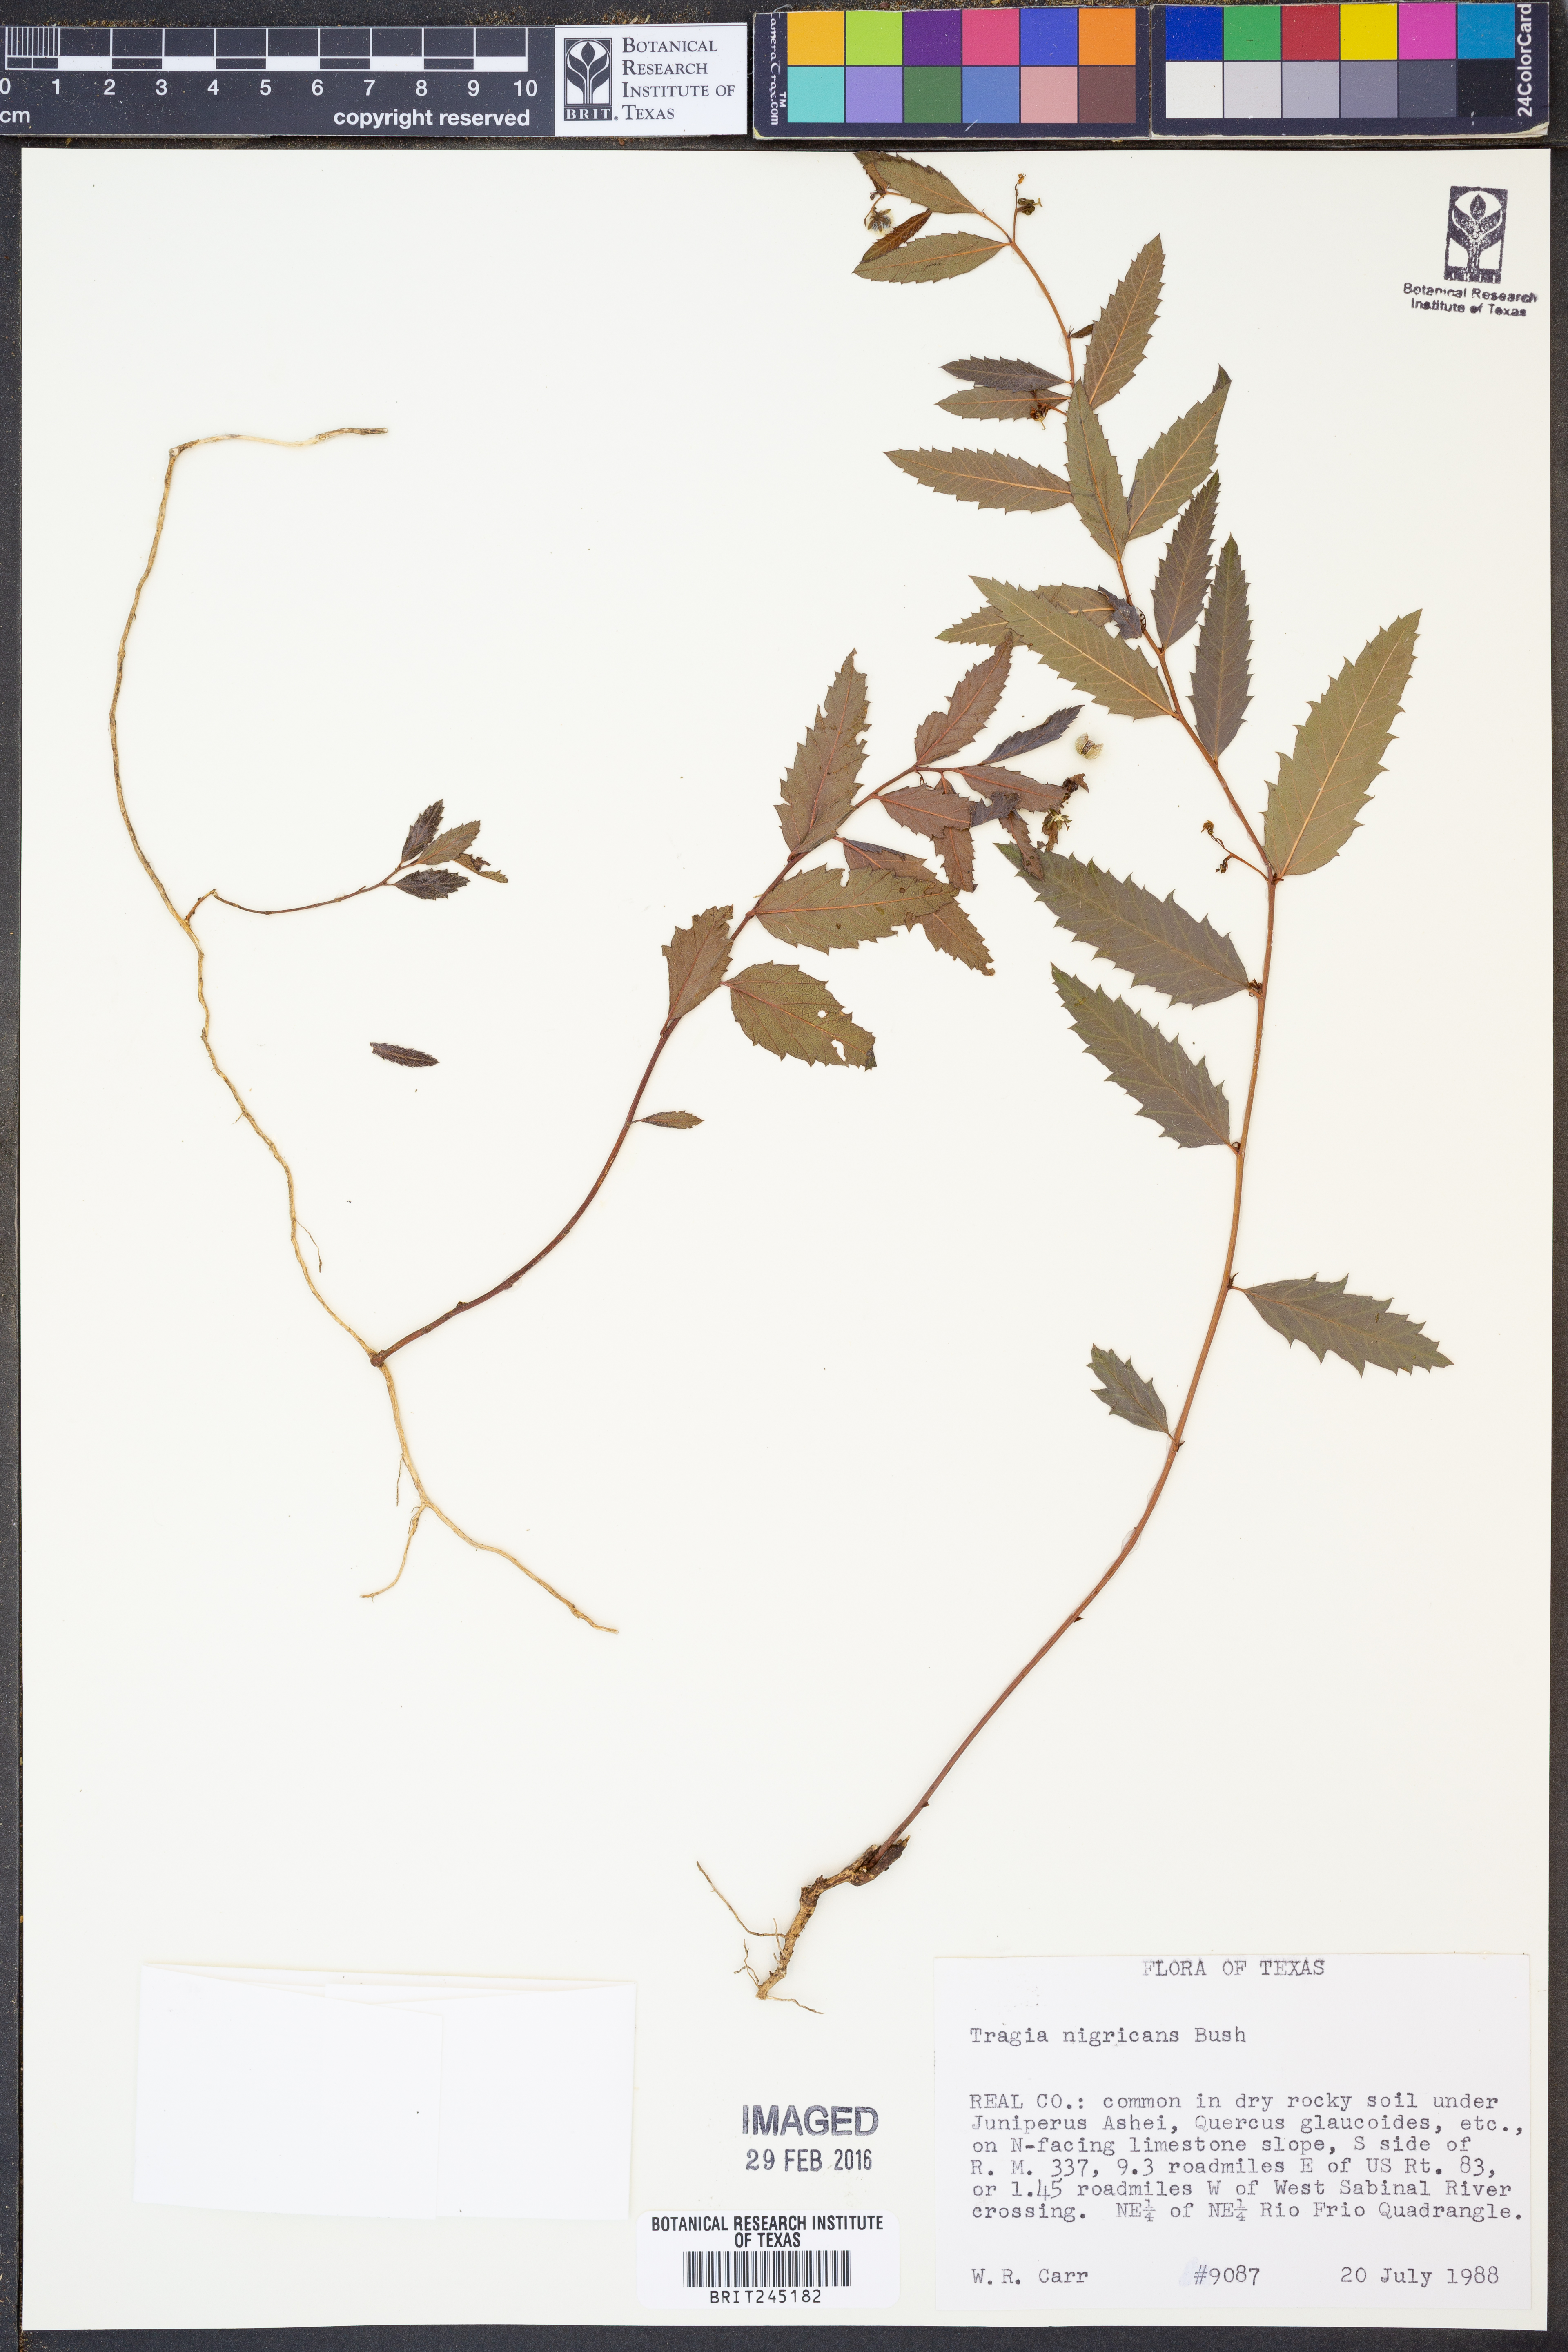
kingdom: Plantae
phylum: Tracheophyta
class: Magnoliopsida
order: Malpighiales
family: Euphorbiaceae
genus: Tragia
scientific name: Tragia nigricans
